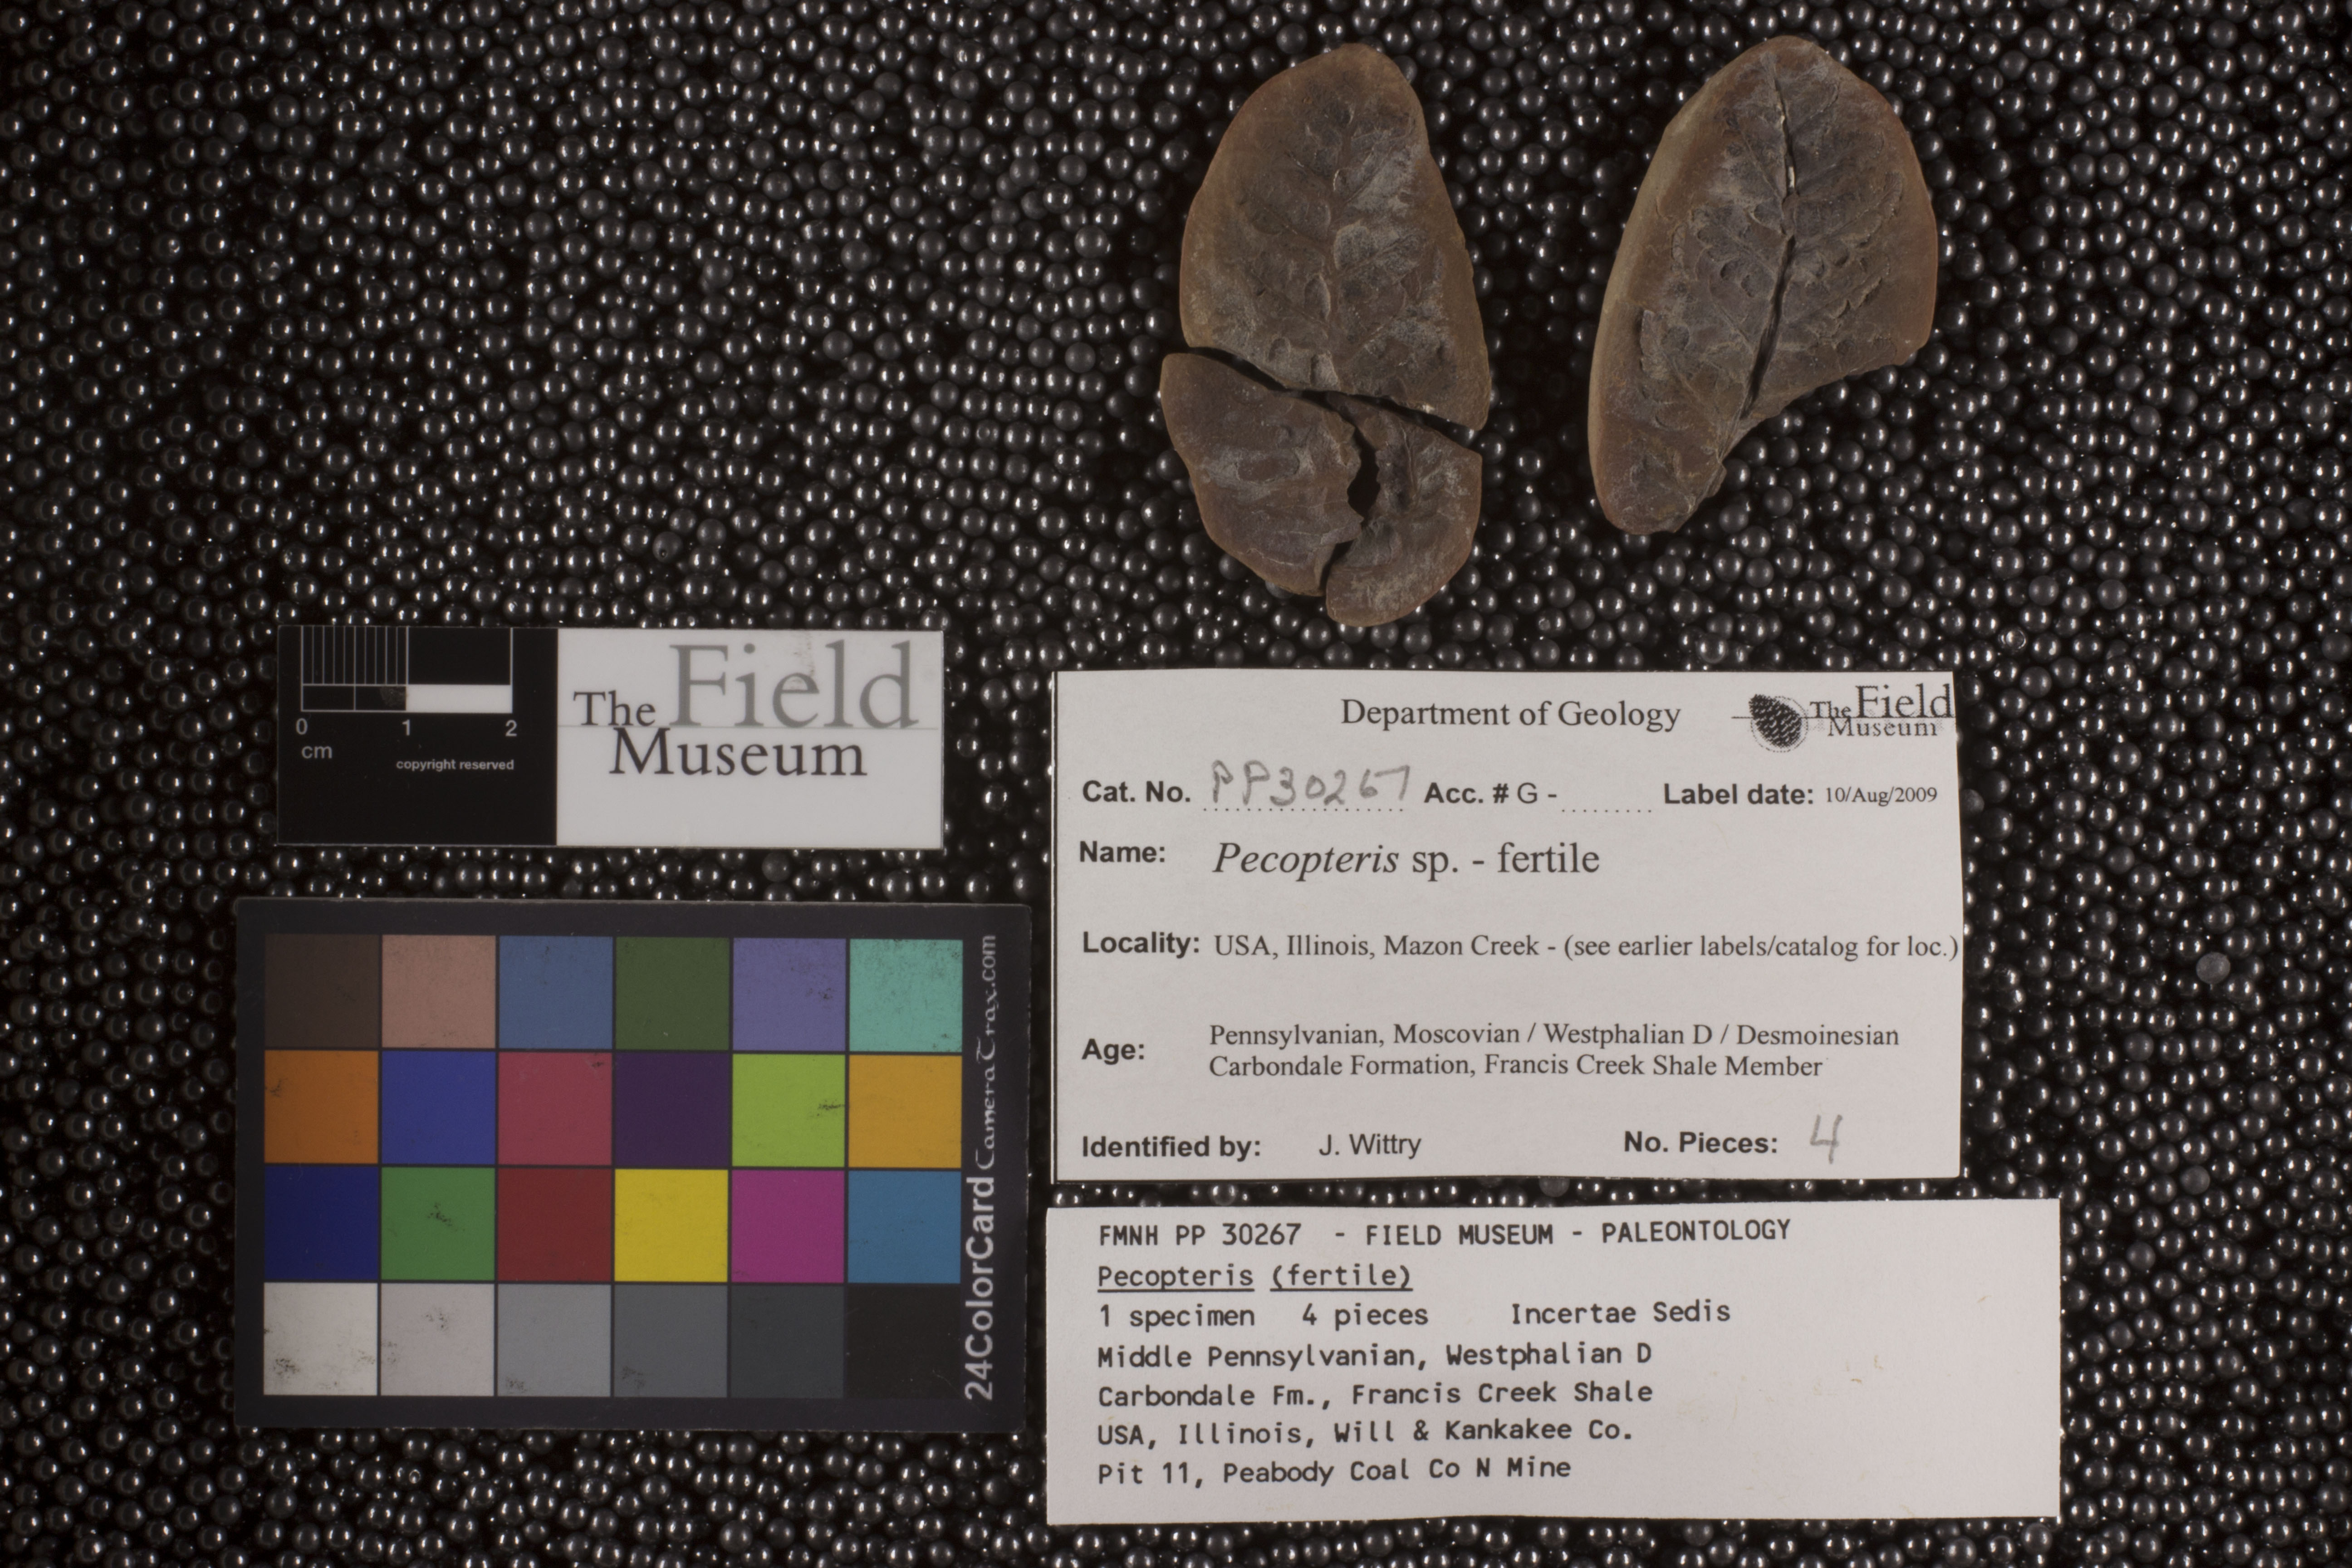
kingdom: Plantae
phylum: Tracheophyta
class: Polypodiopsida
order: Marattiales
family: Asterothecaceae
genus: Pecopteris
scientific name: Pecopteris
